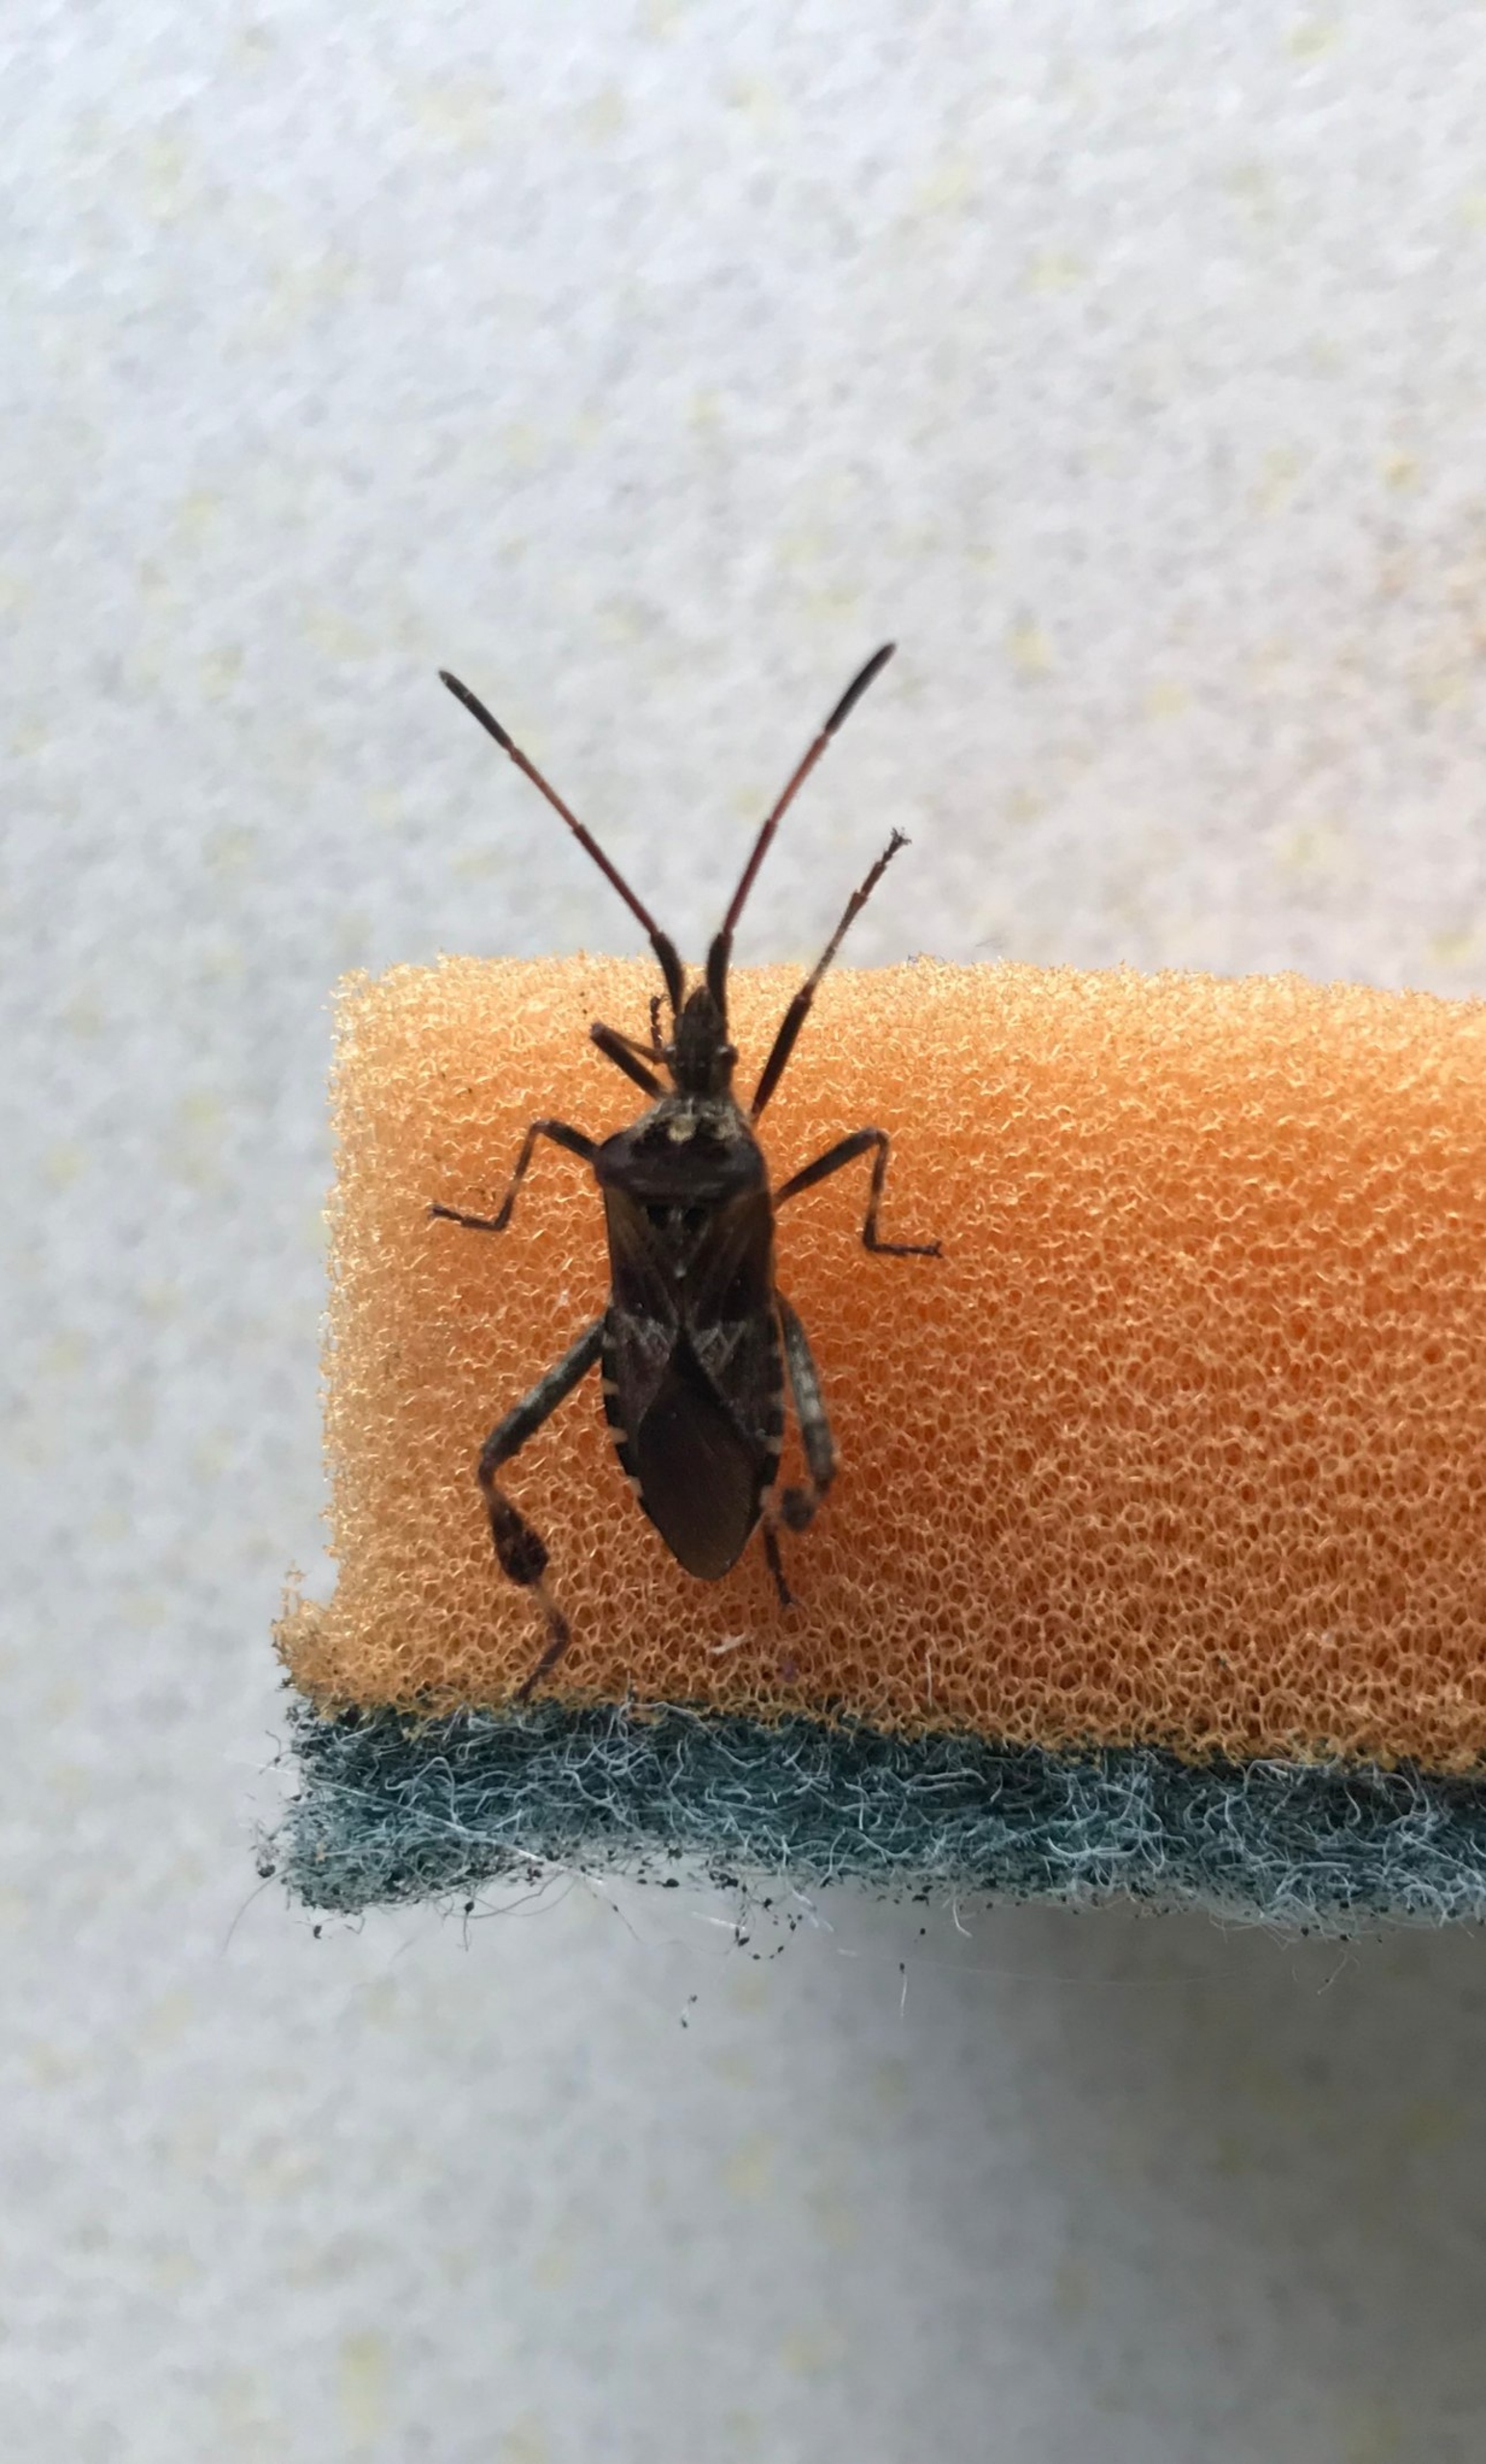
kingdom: Animalia
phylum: Arthropoda
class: Insecta
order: Hemiptera
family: Coreidae
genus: Leptoglossus
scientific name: Leptoglossus occidentalis
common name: Amerikansk fyrretæge
